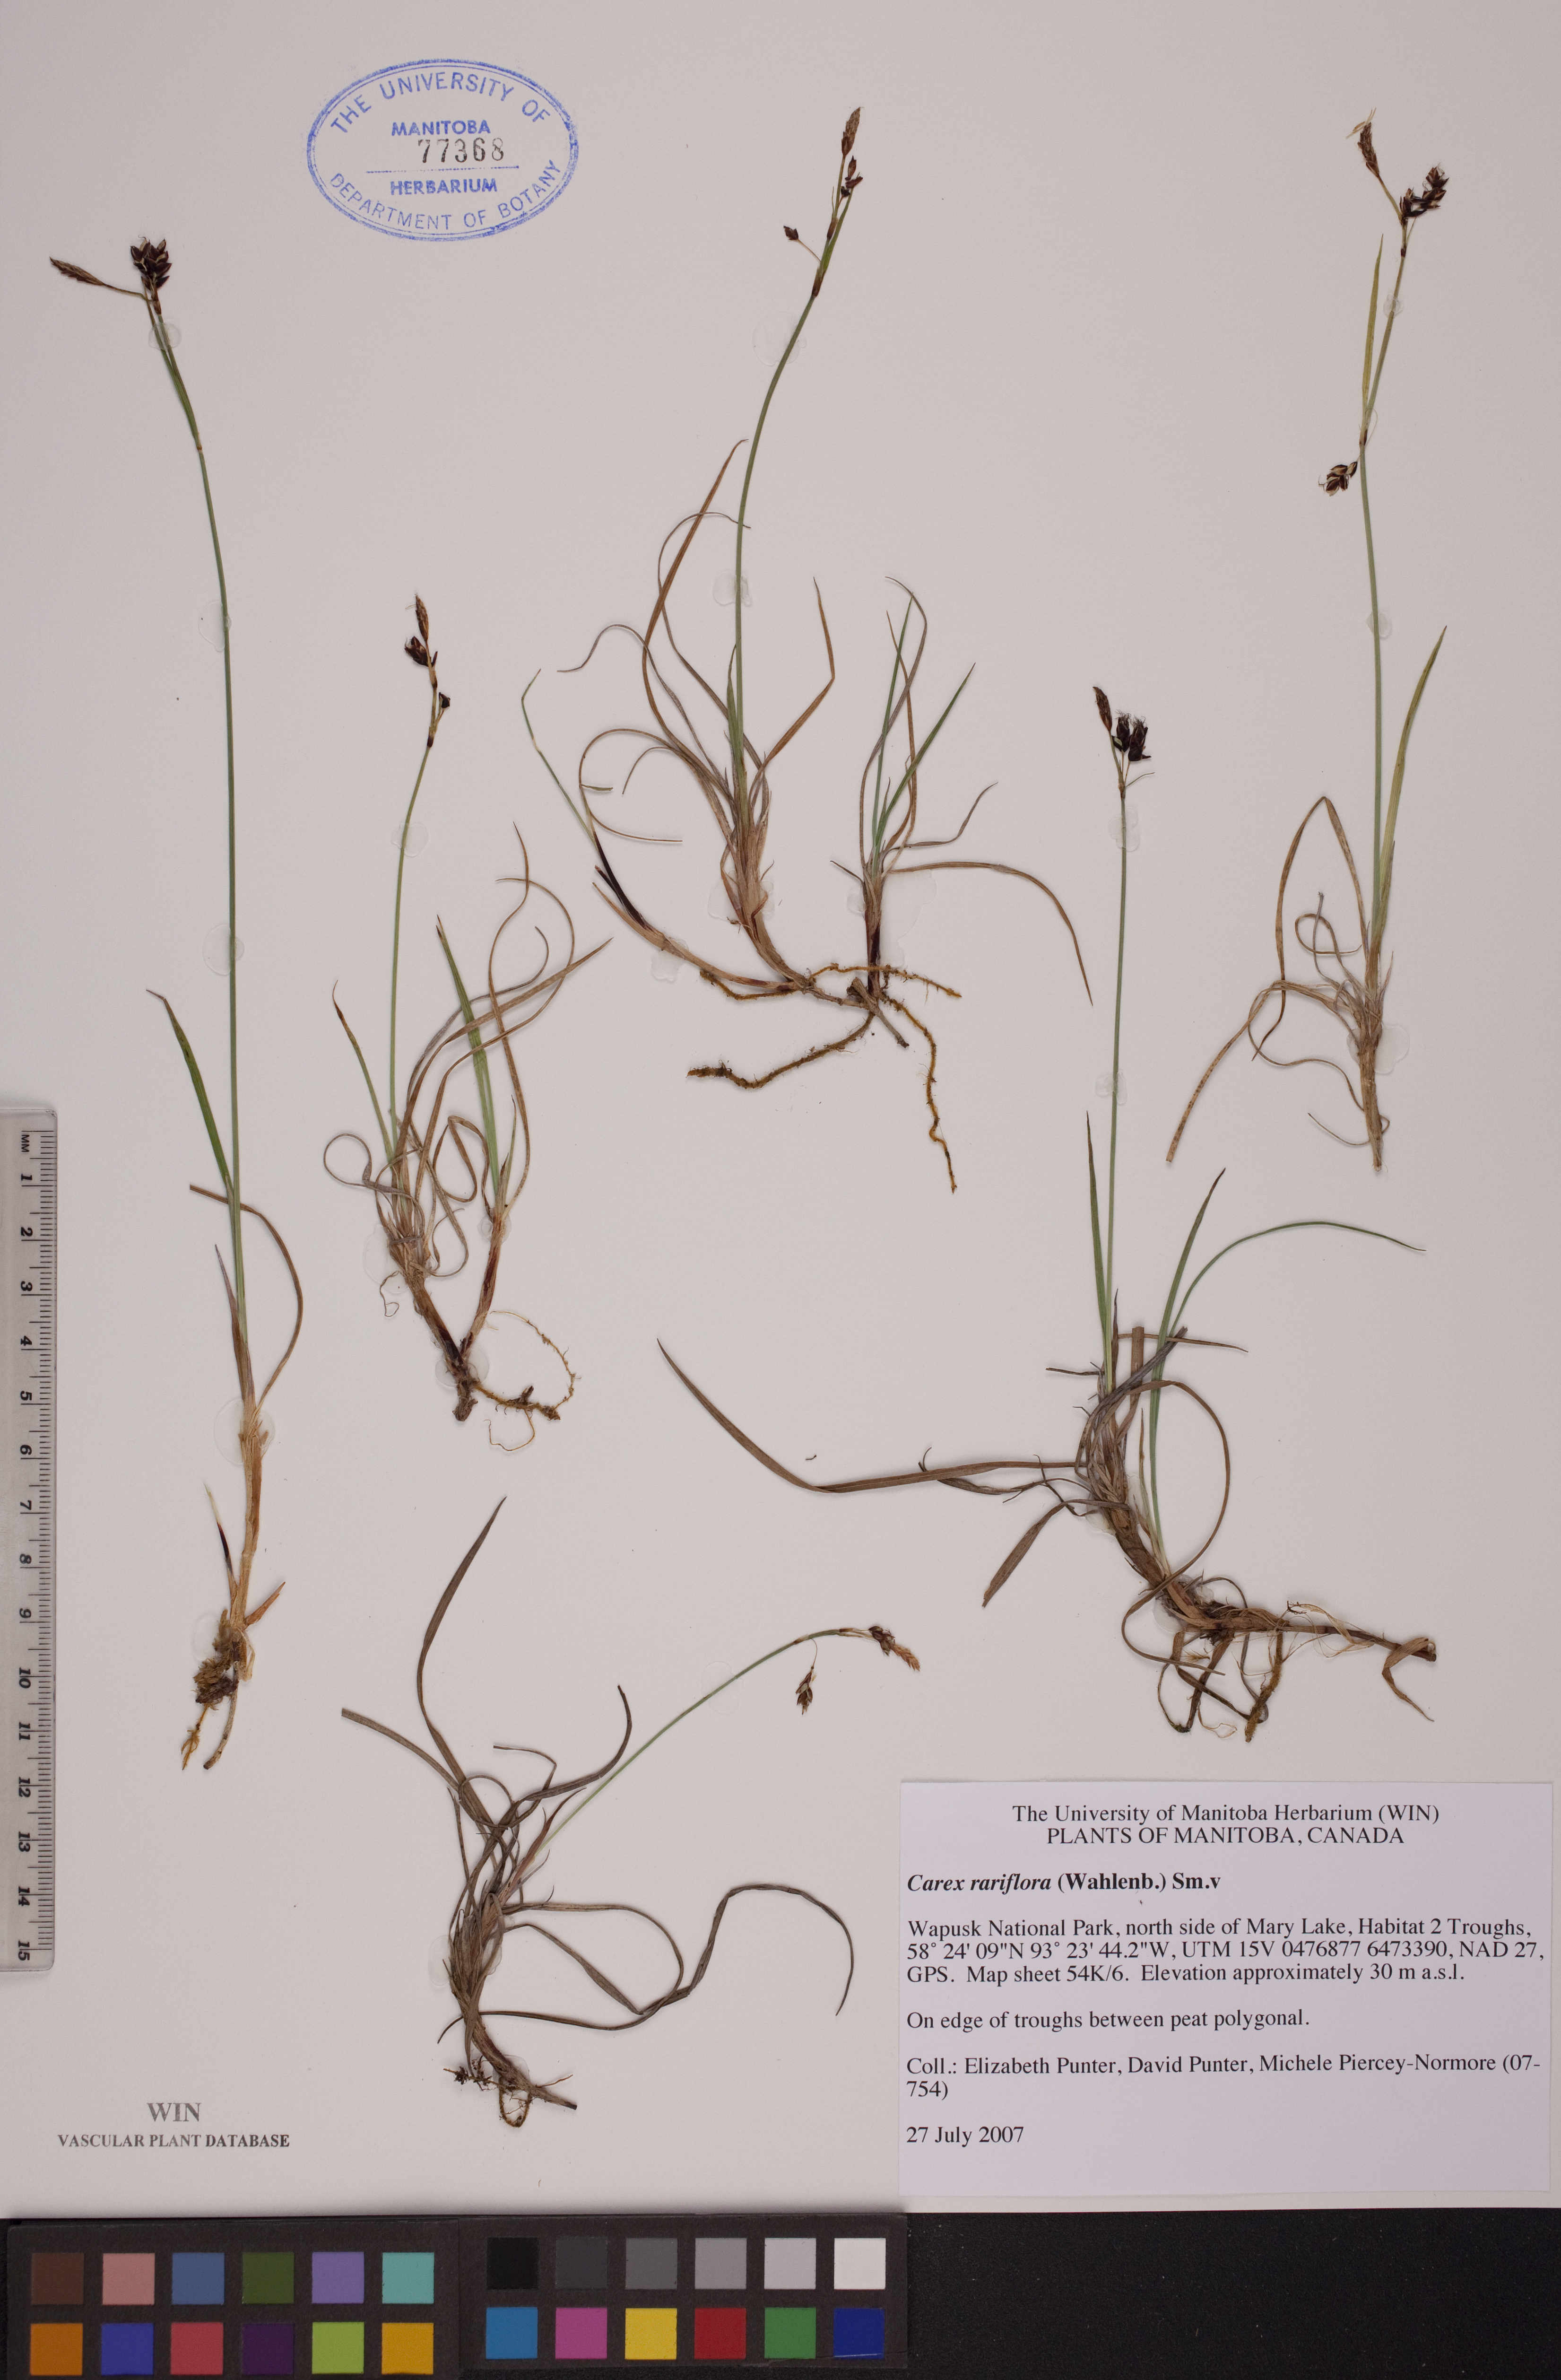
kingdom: Plantae
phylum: Tracheophyta
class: Liliopsida
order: Poales
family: Cyperaceae
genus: Carex
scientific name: Carex rariflora
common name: Loose-flowered alpine sedge
